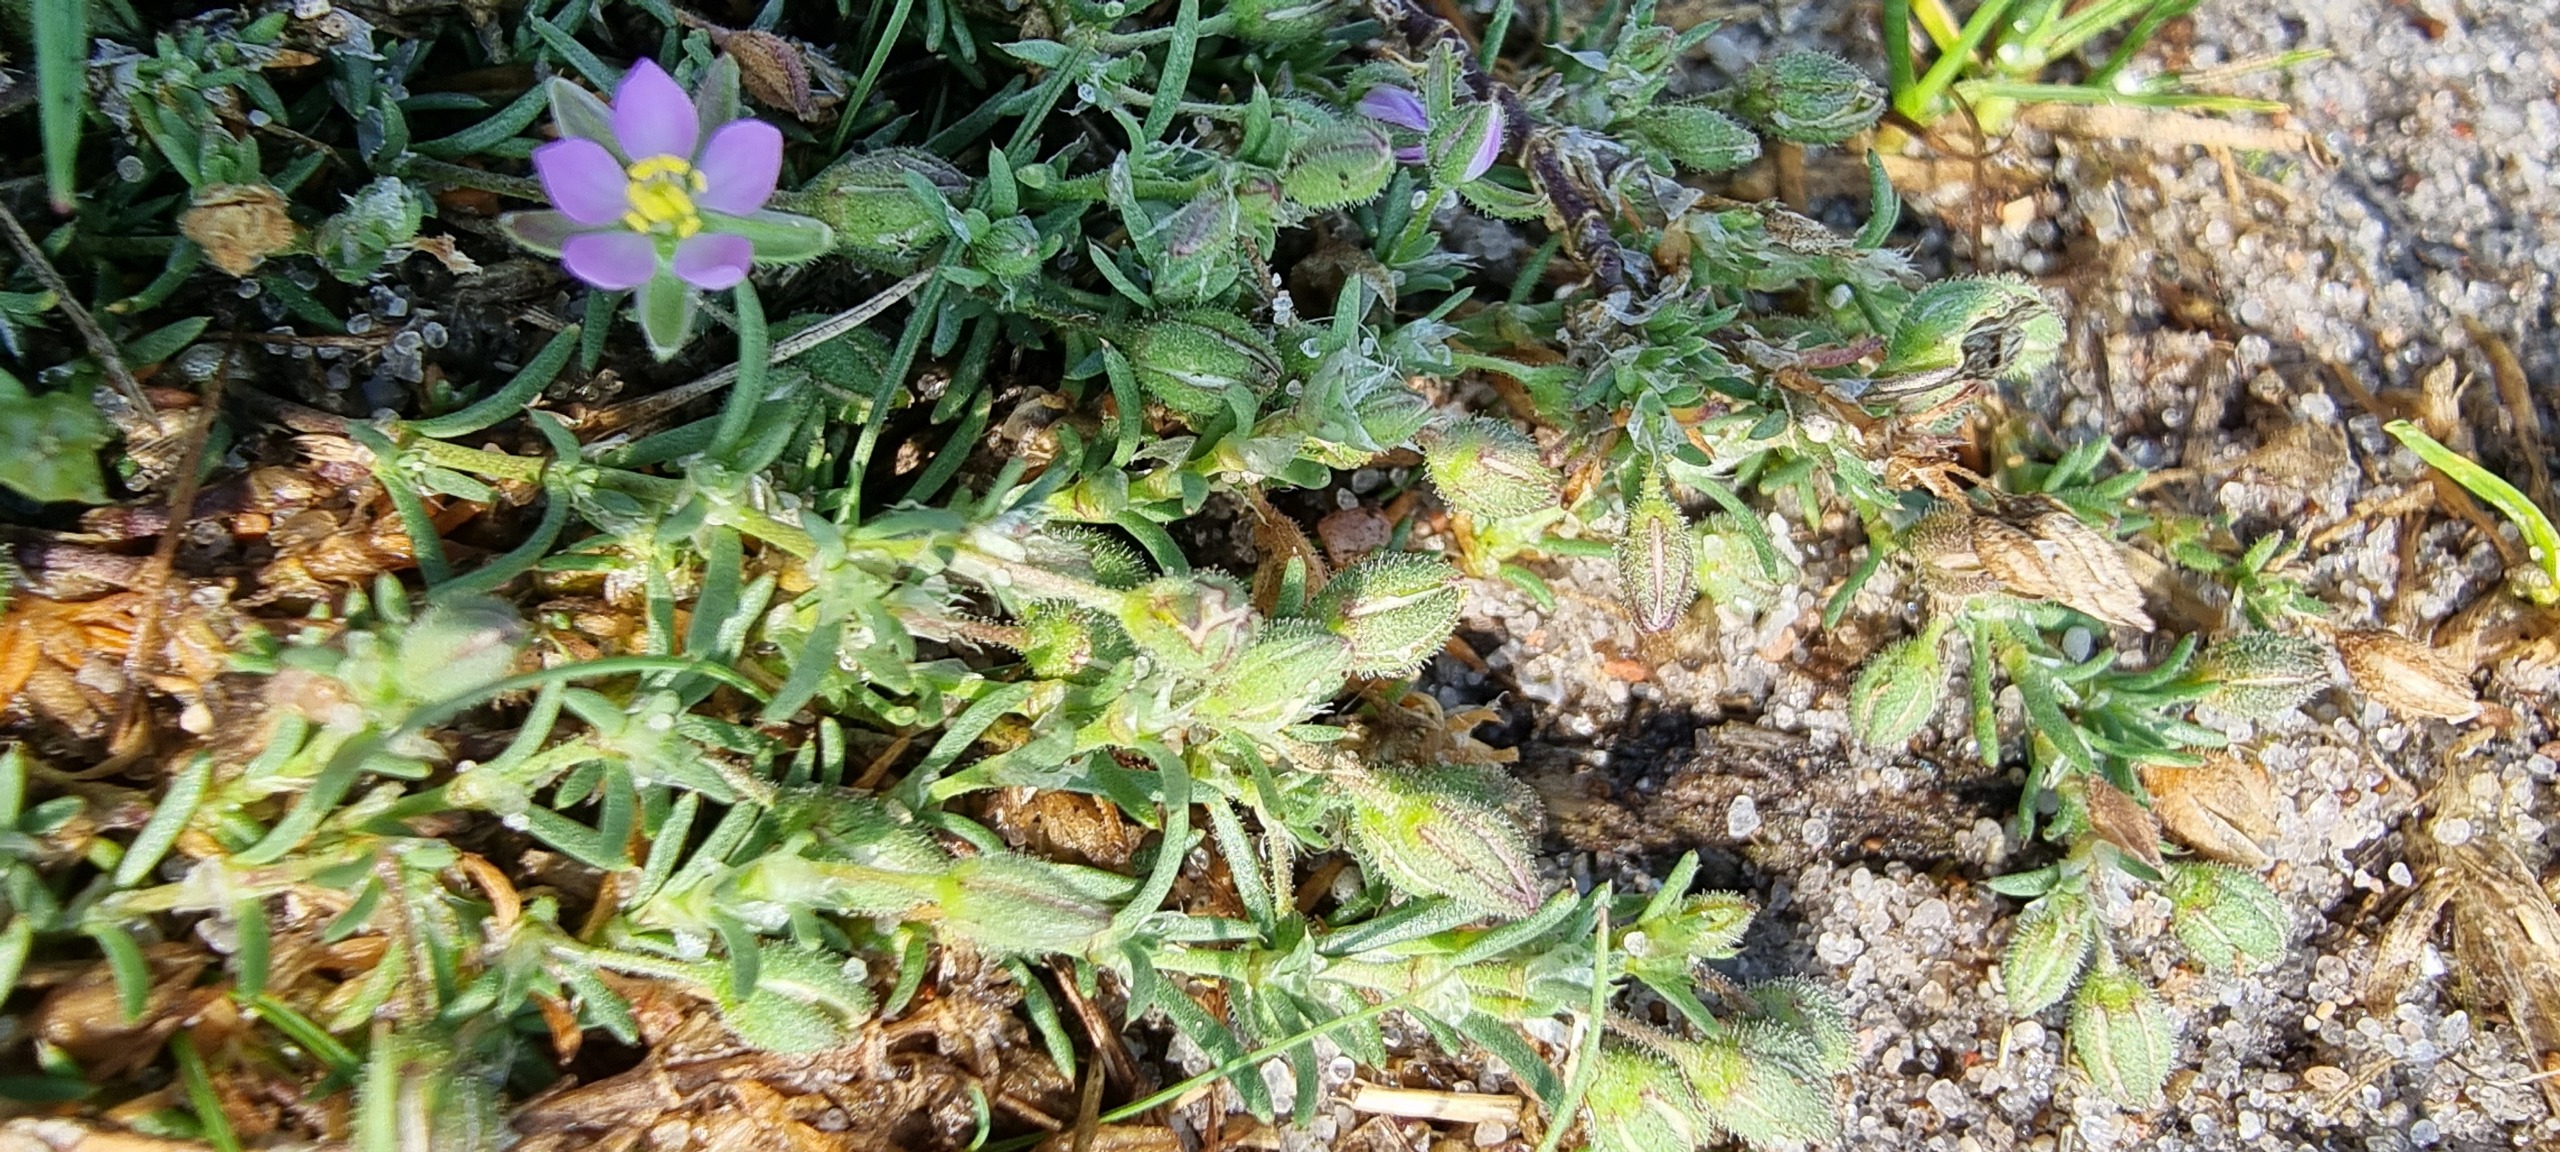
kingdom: Plantae
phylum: Tracheophyta
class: Magnoliopsida
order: Caryophyllales
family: Caryophyllaceae
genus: Spergularia
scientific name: Spergularia
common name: Hindeknæslægten
